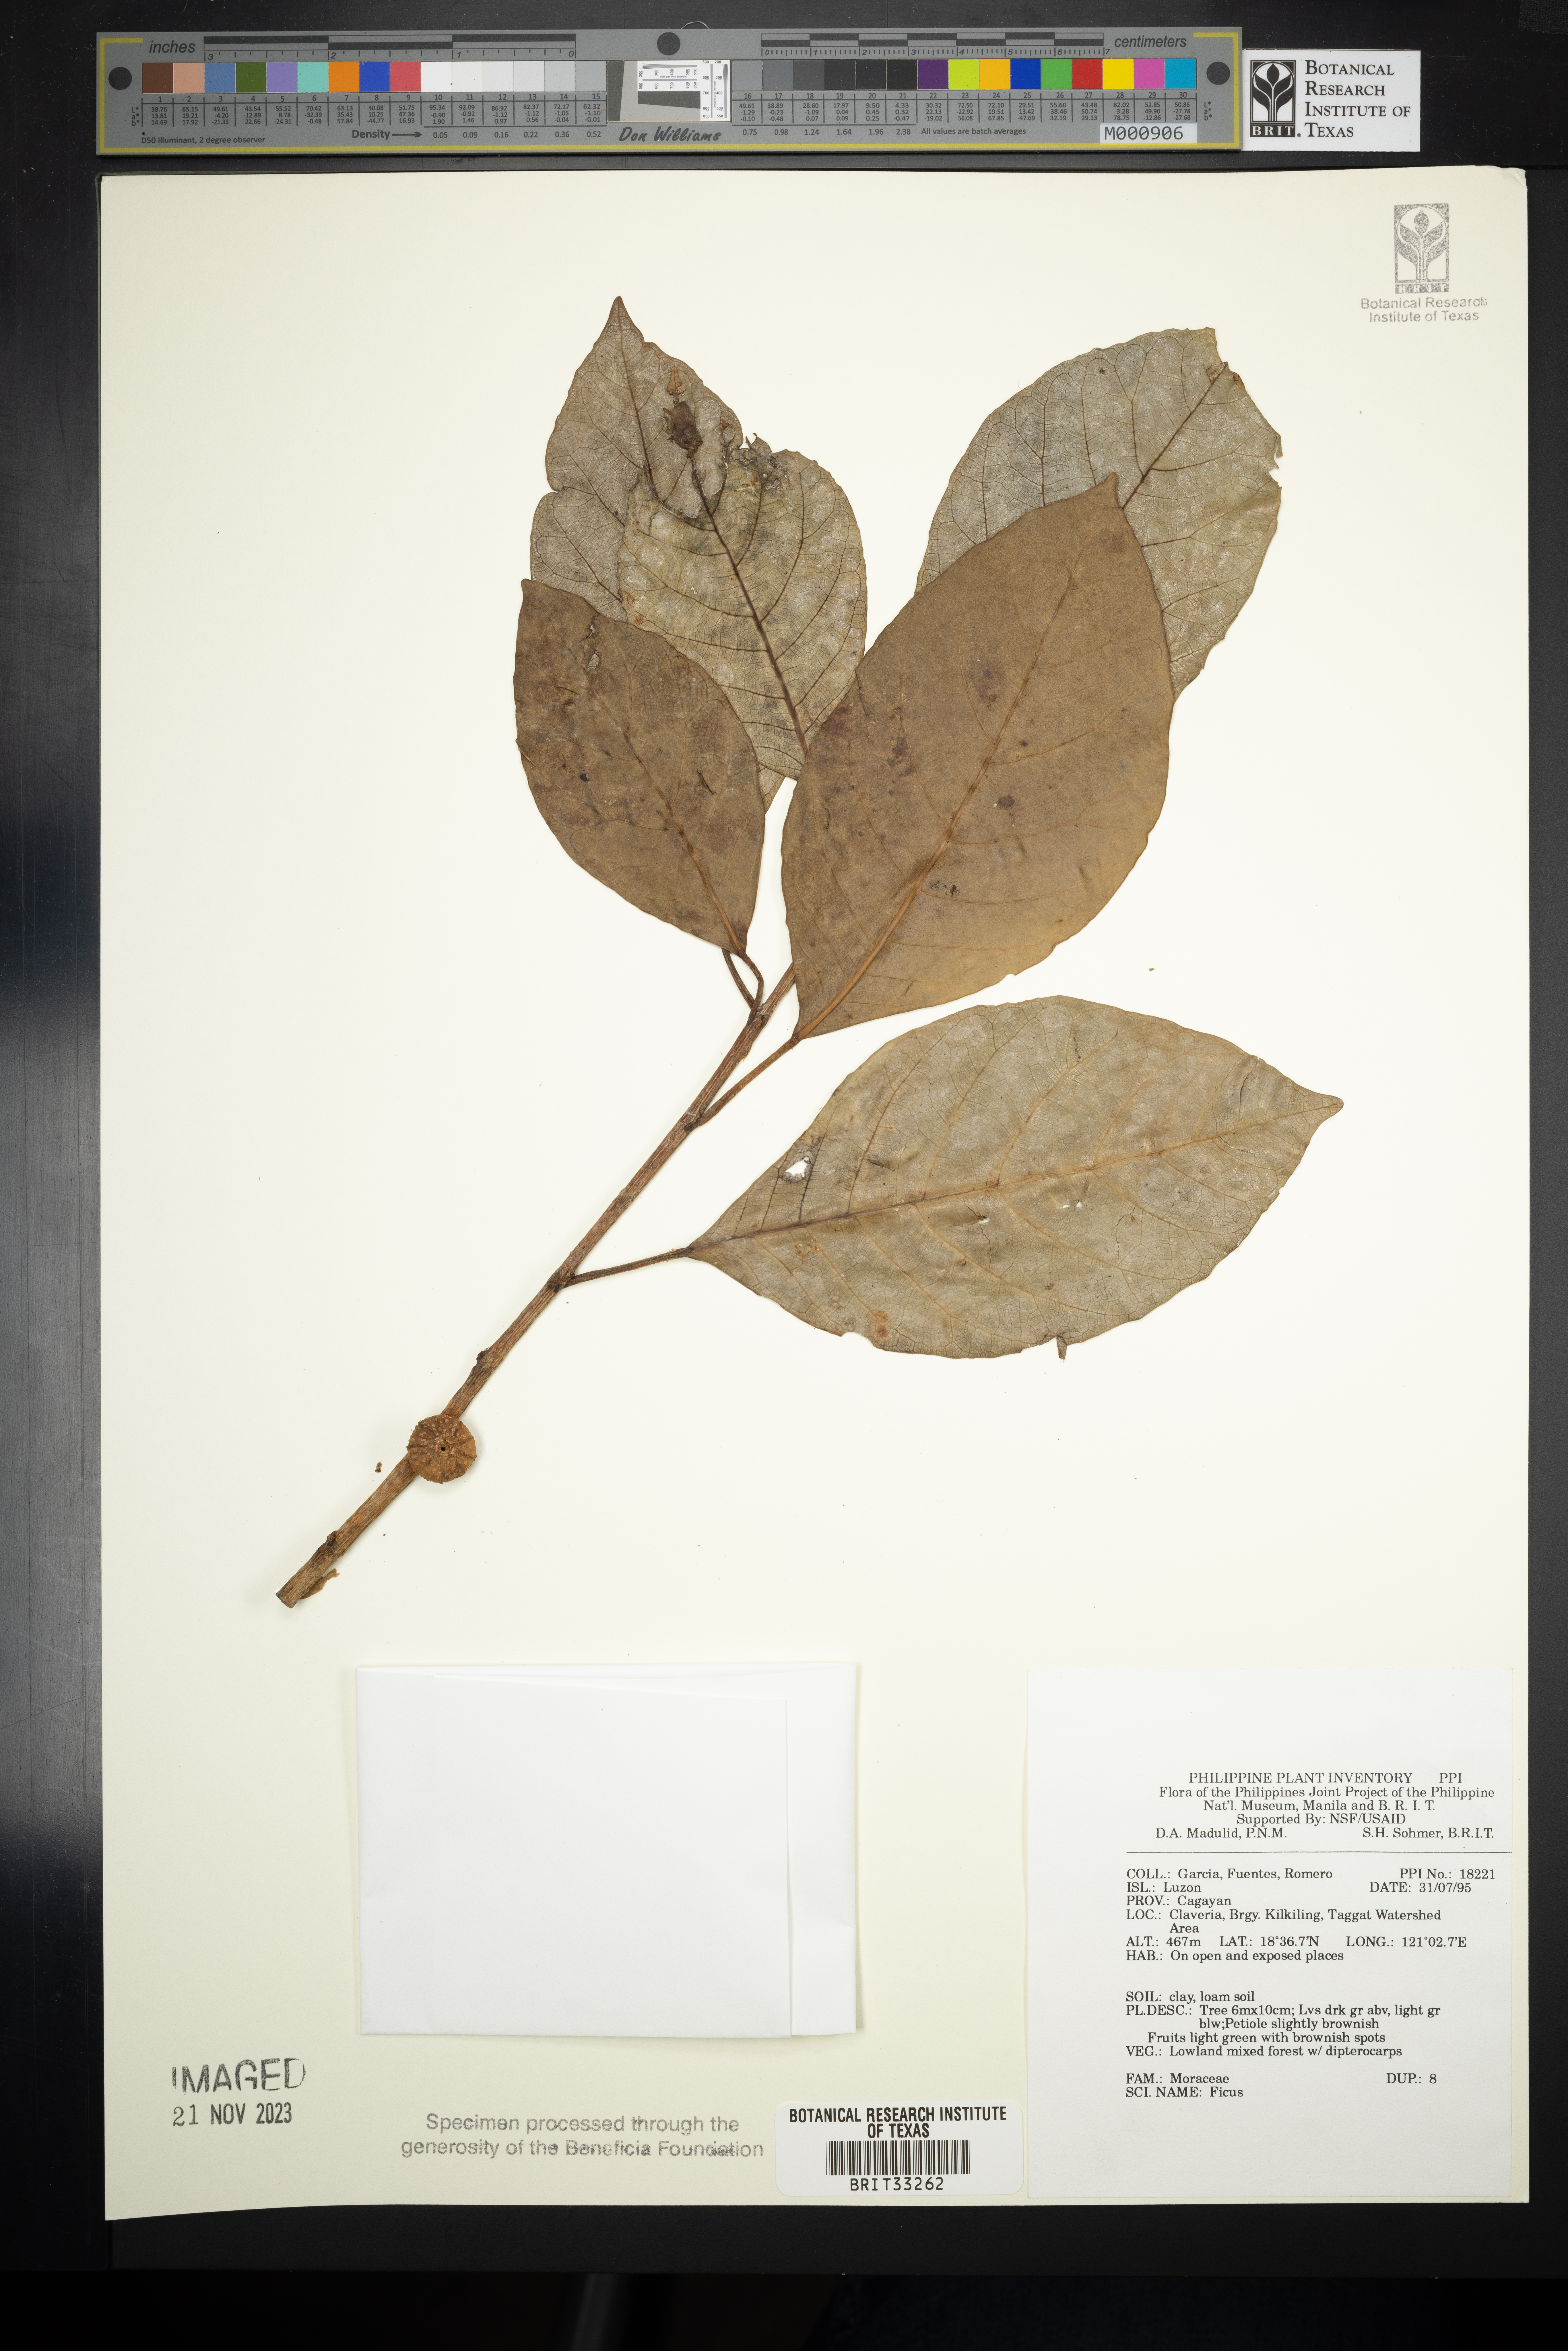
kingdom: Plantae
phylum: Tracheophyta
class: Magnoliopsida
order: Rosales
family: Moraceae
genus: Ficus
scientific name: Ficus
